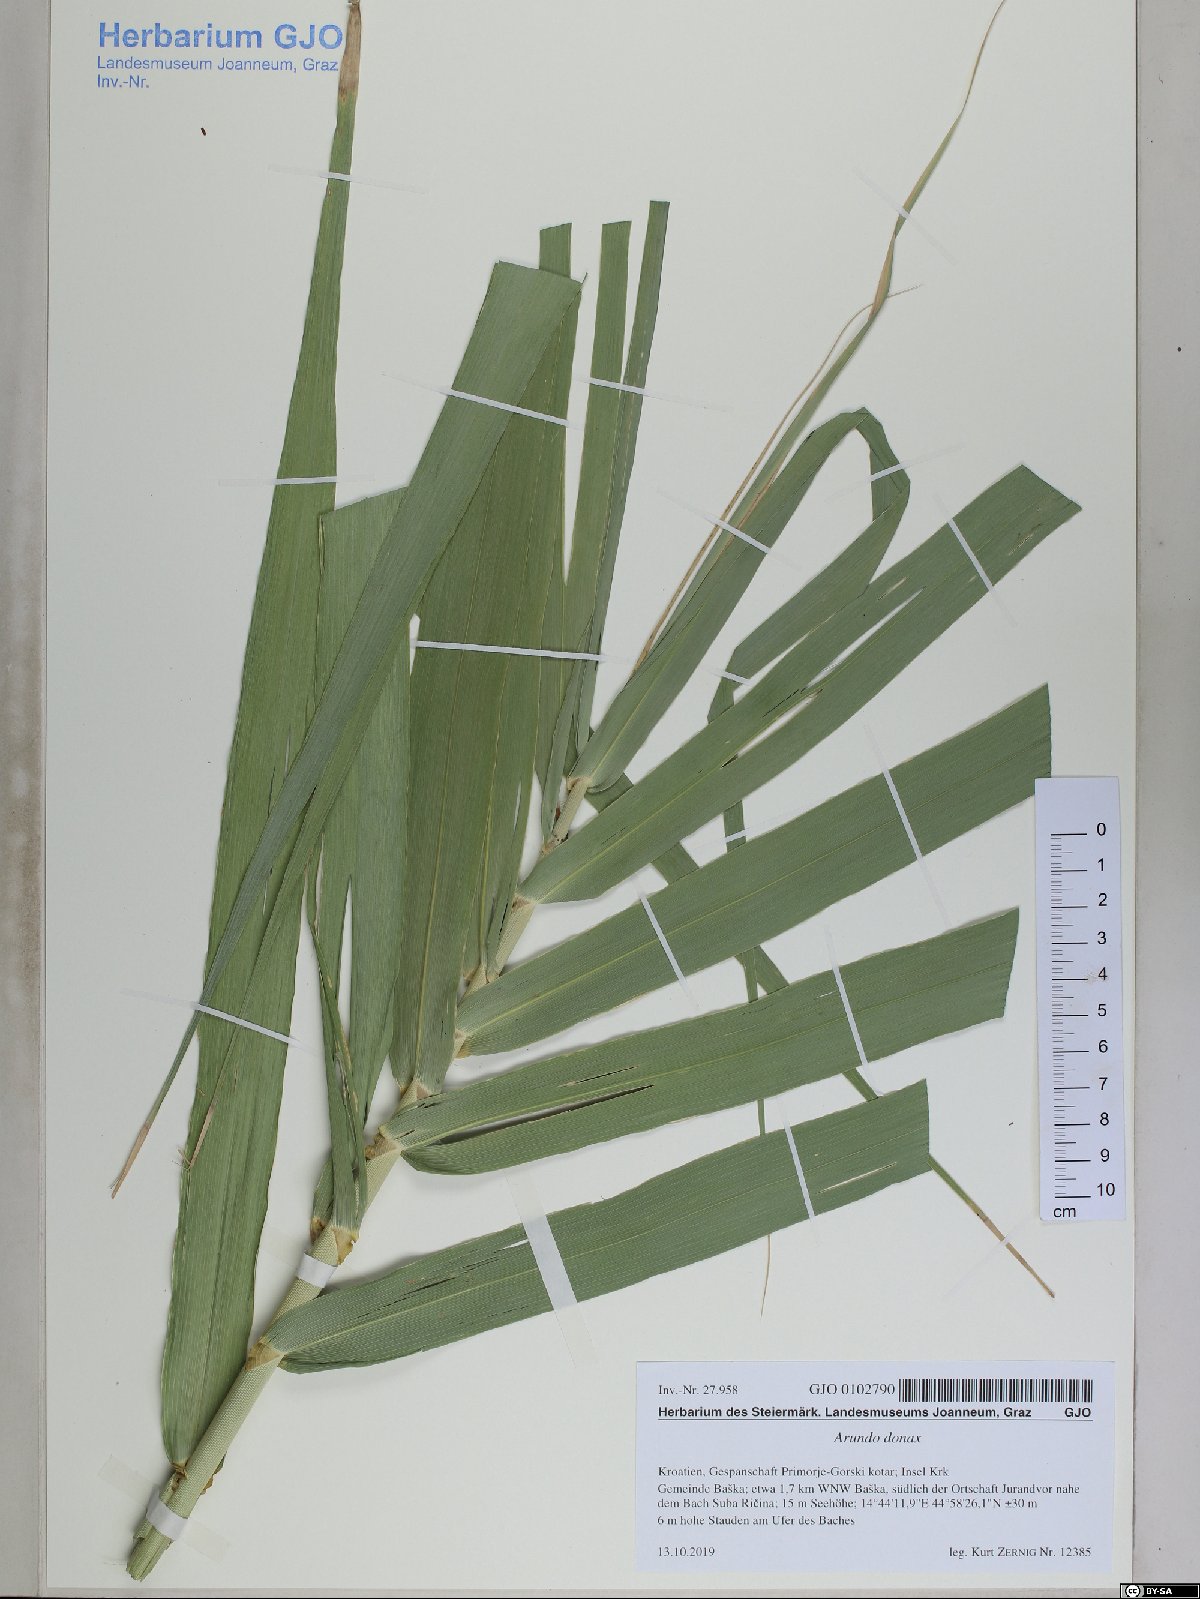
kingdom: Plantae
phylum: Tracheophyta
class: Liliopsida
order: Poales
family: Poaceae
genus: Arundo
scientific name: Arundo donax
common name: Giant reed
